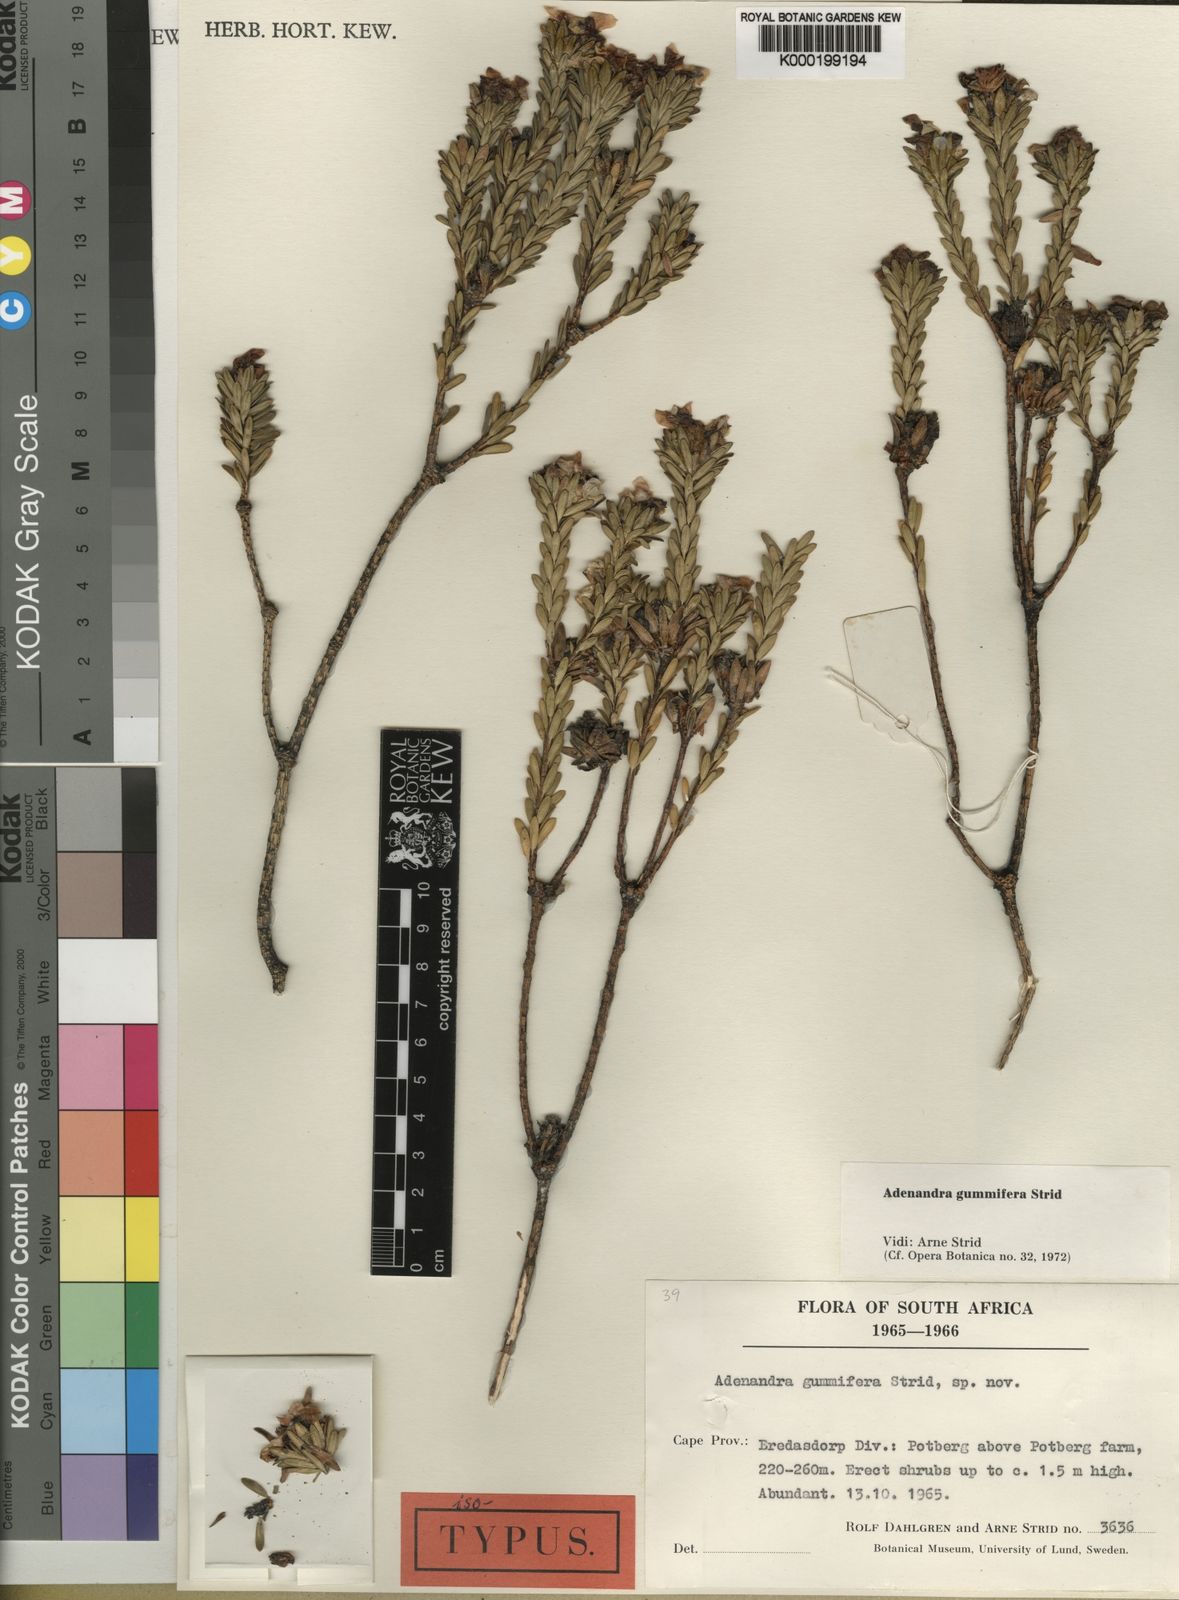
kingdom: Plantae
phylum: Tracheophyta
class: Magnoliopsida
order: Sapindales
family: Rutaceae
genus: Adenandra
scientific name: Adenandra gummifera
